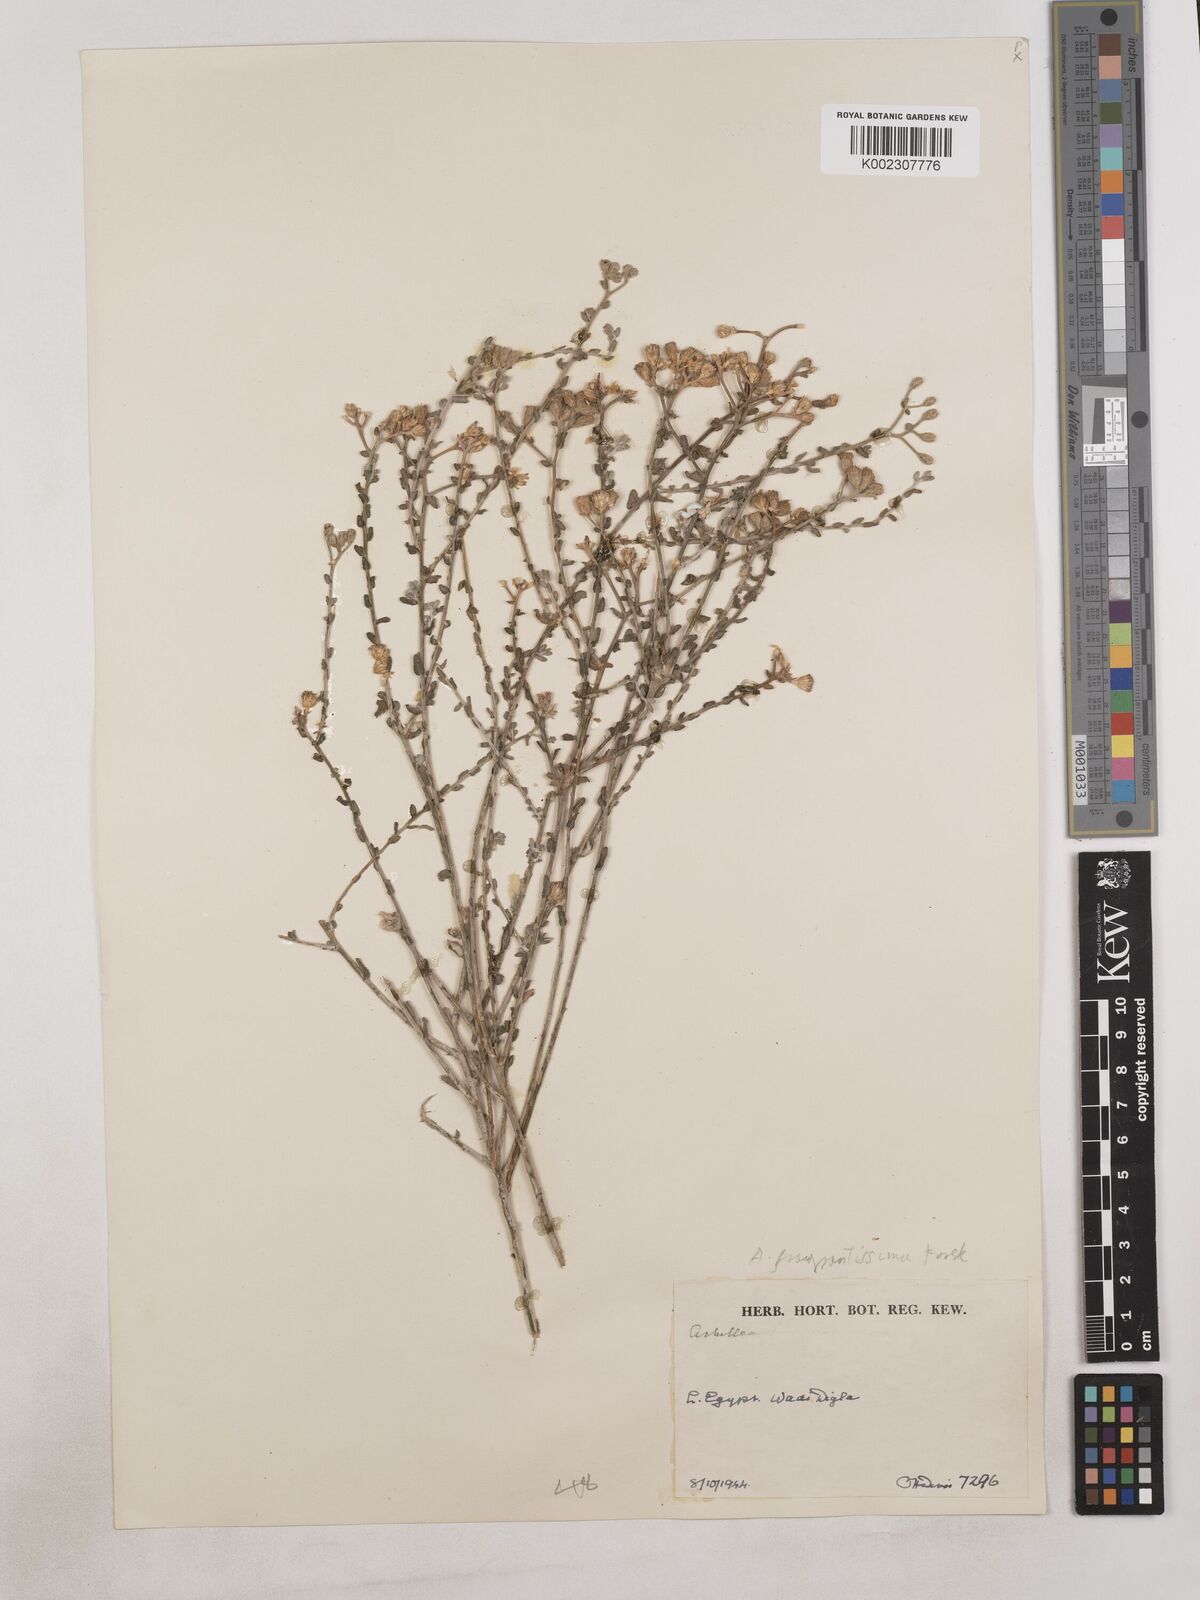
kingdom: Plantae
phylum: Tracheophyta
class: Magnoliopsida
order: Asterales
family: Asteraceae
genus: Achillea
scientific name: Achillea fragrantissima
